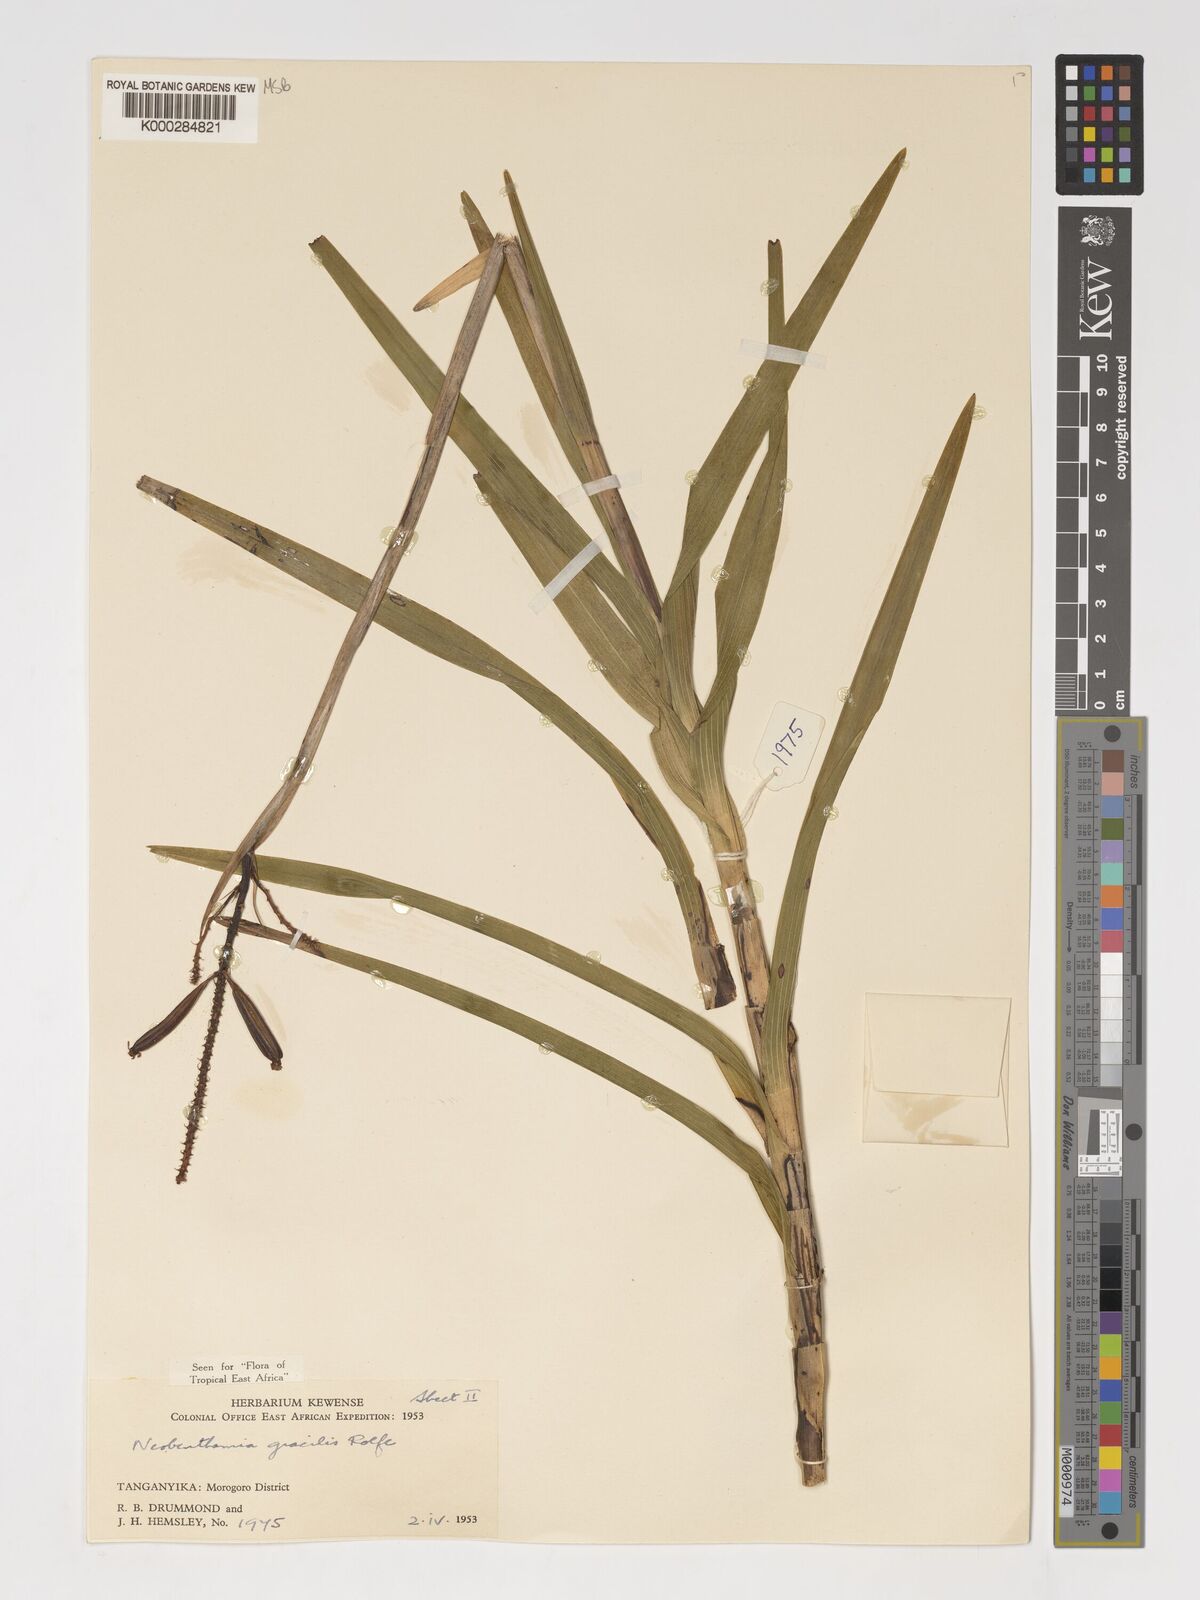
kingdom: Plantae
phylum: Tracheophyta
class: Liliopsida
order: Asparagales
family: Orchidaceae
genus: Polystachya
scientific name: Polystachya neobenthamia
